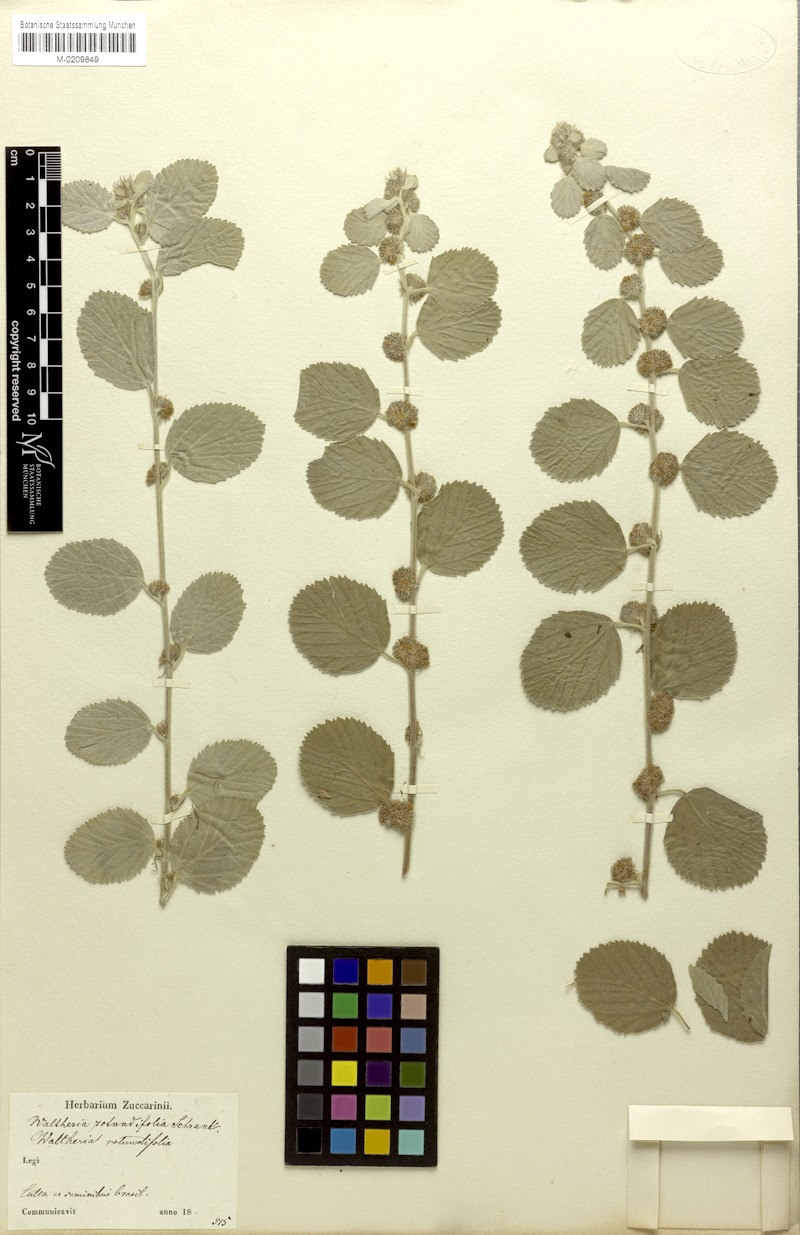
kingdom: Plantae
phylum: Tracheophyta
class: Magnoliopsida
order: Malvales
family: Malvaceae
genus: Waltheria
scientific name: Waltheria rotundifolia
